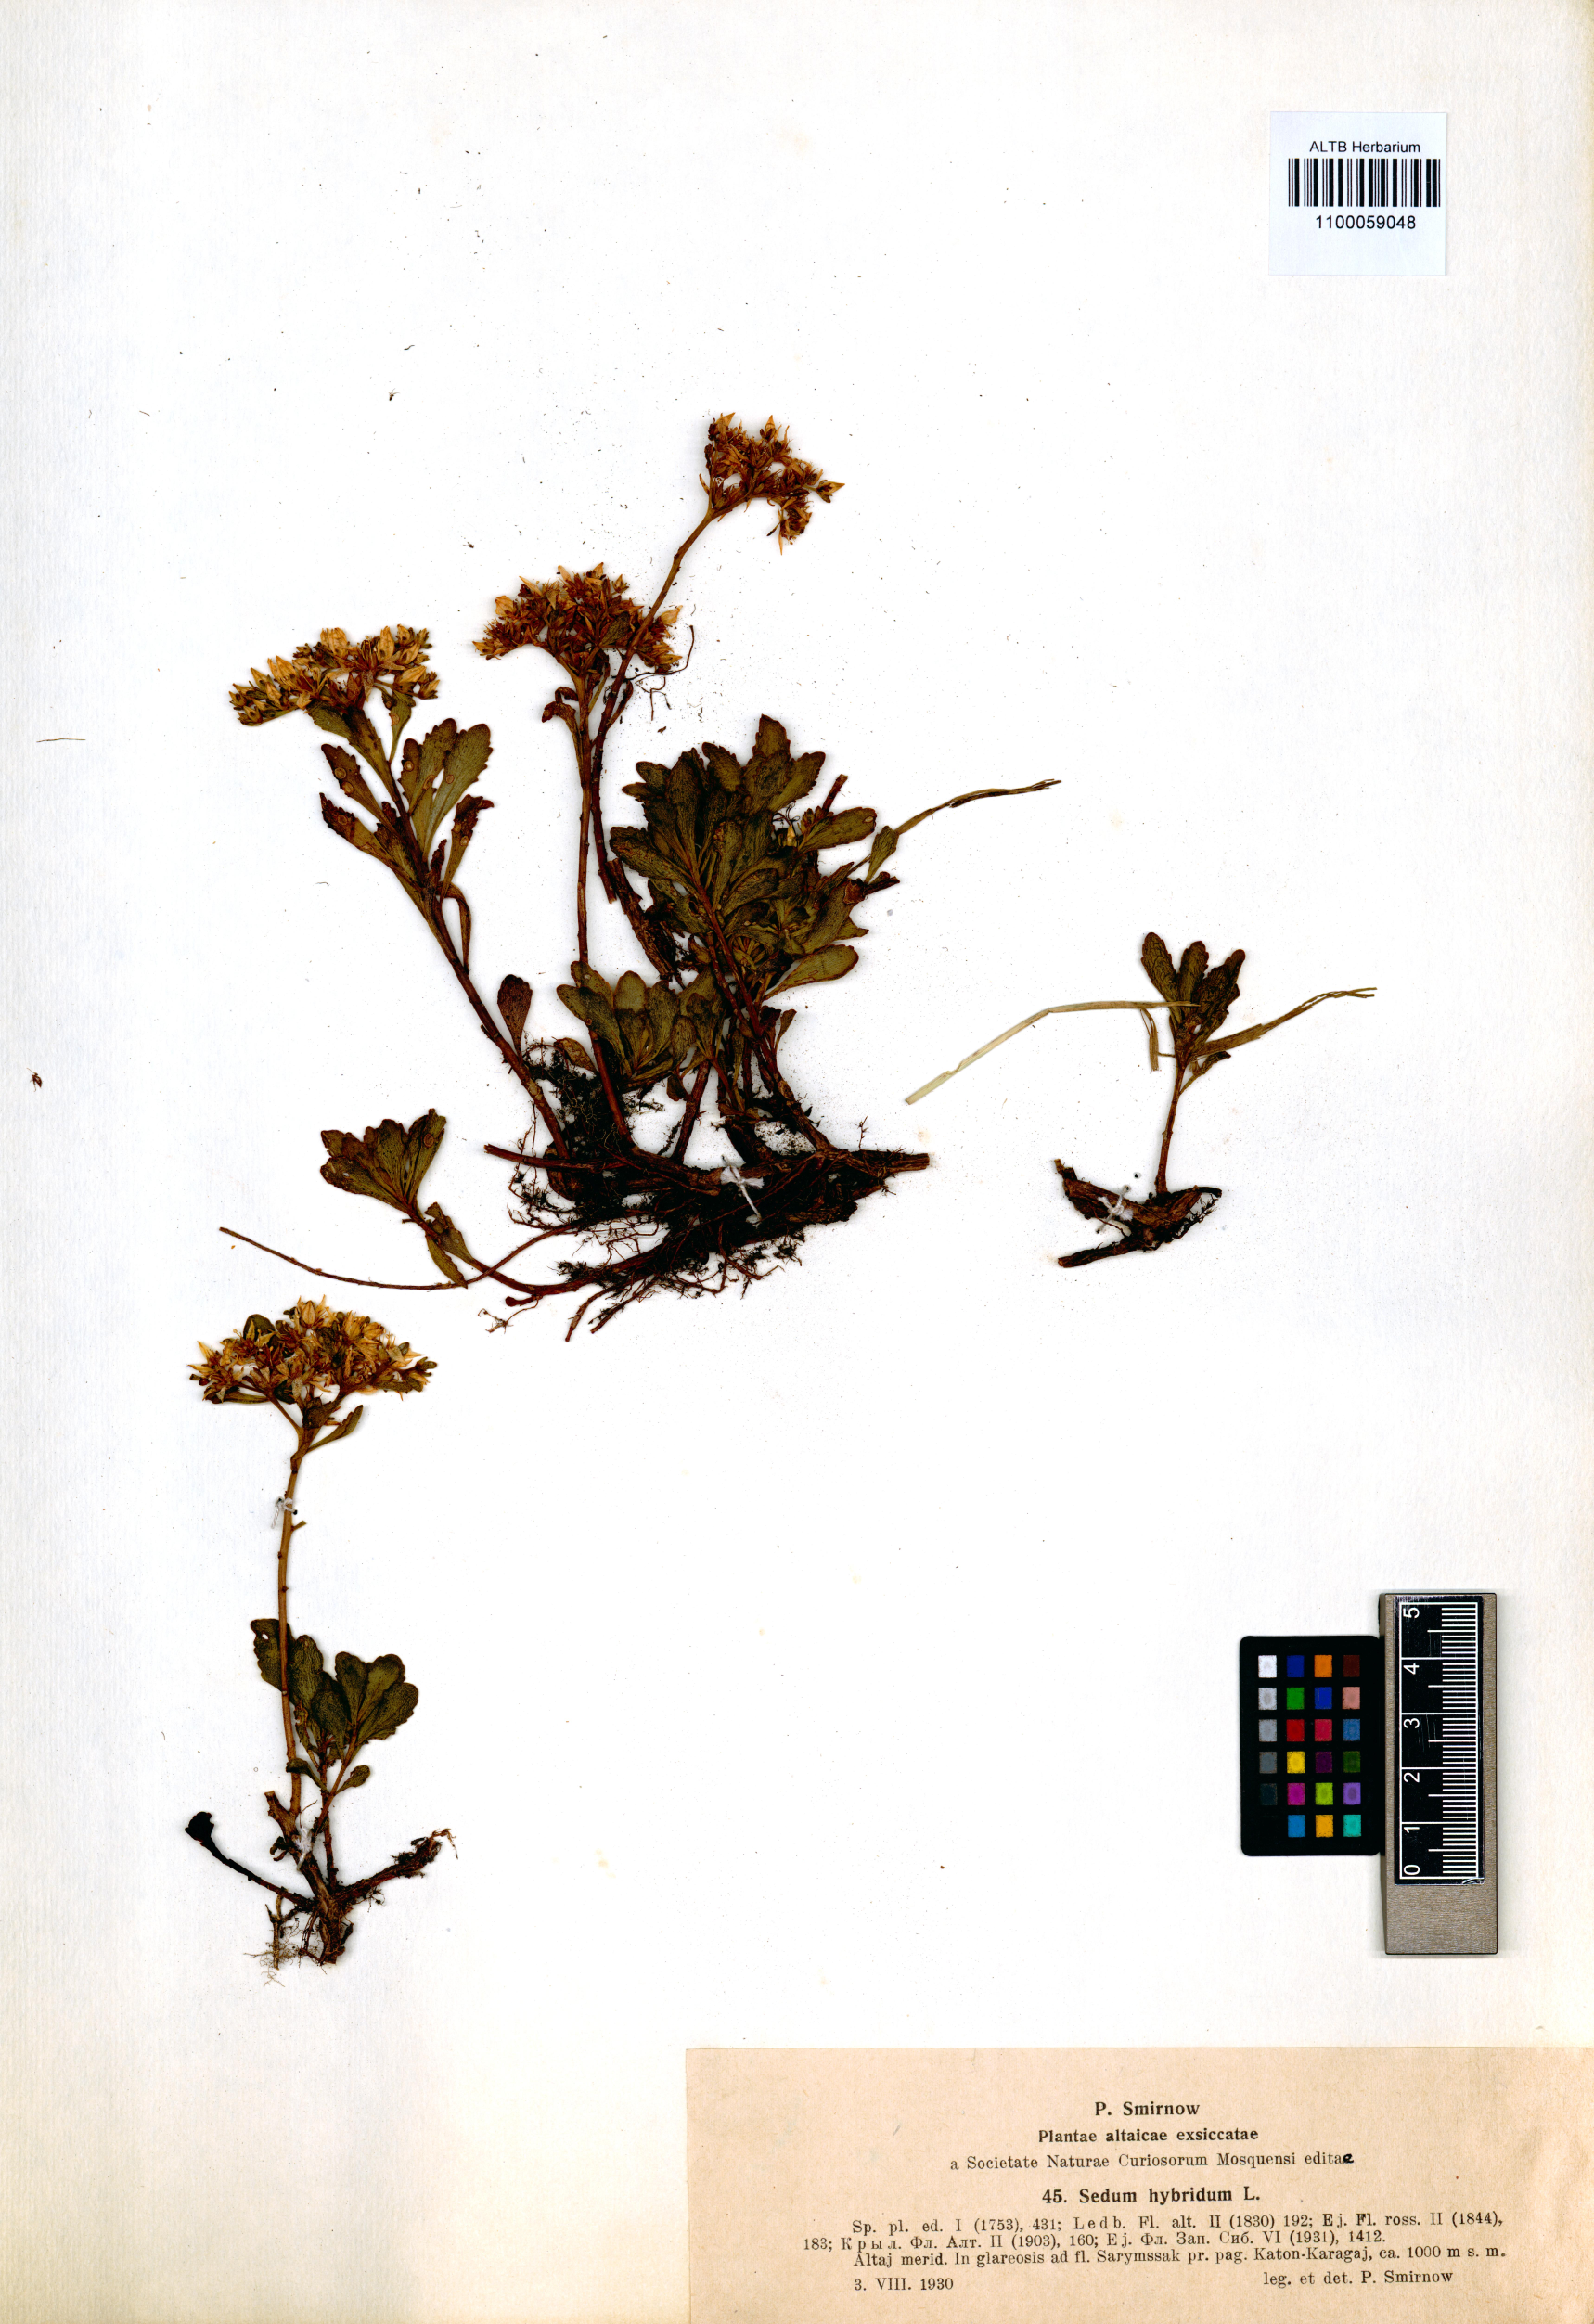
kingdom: Plantae
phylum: Tracheophyta
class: Magnoliopsida
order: Saxifragales
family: Crassulaceae
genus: Phedimus
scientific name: Phedimus hybridus
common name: Hybrid stonecrop
